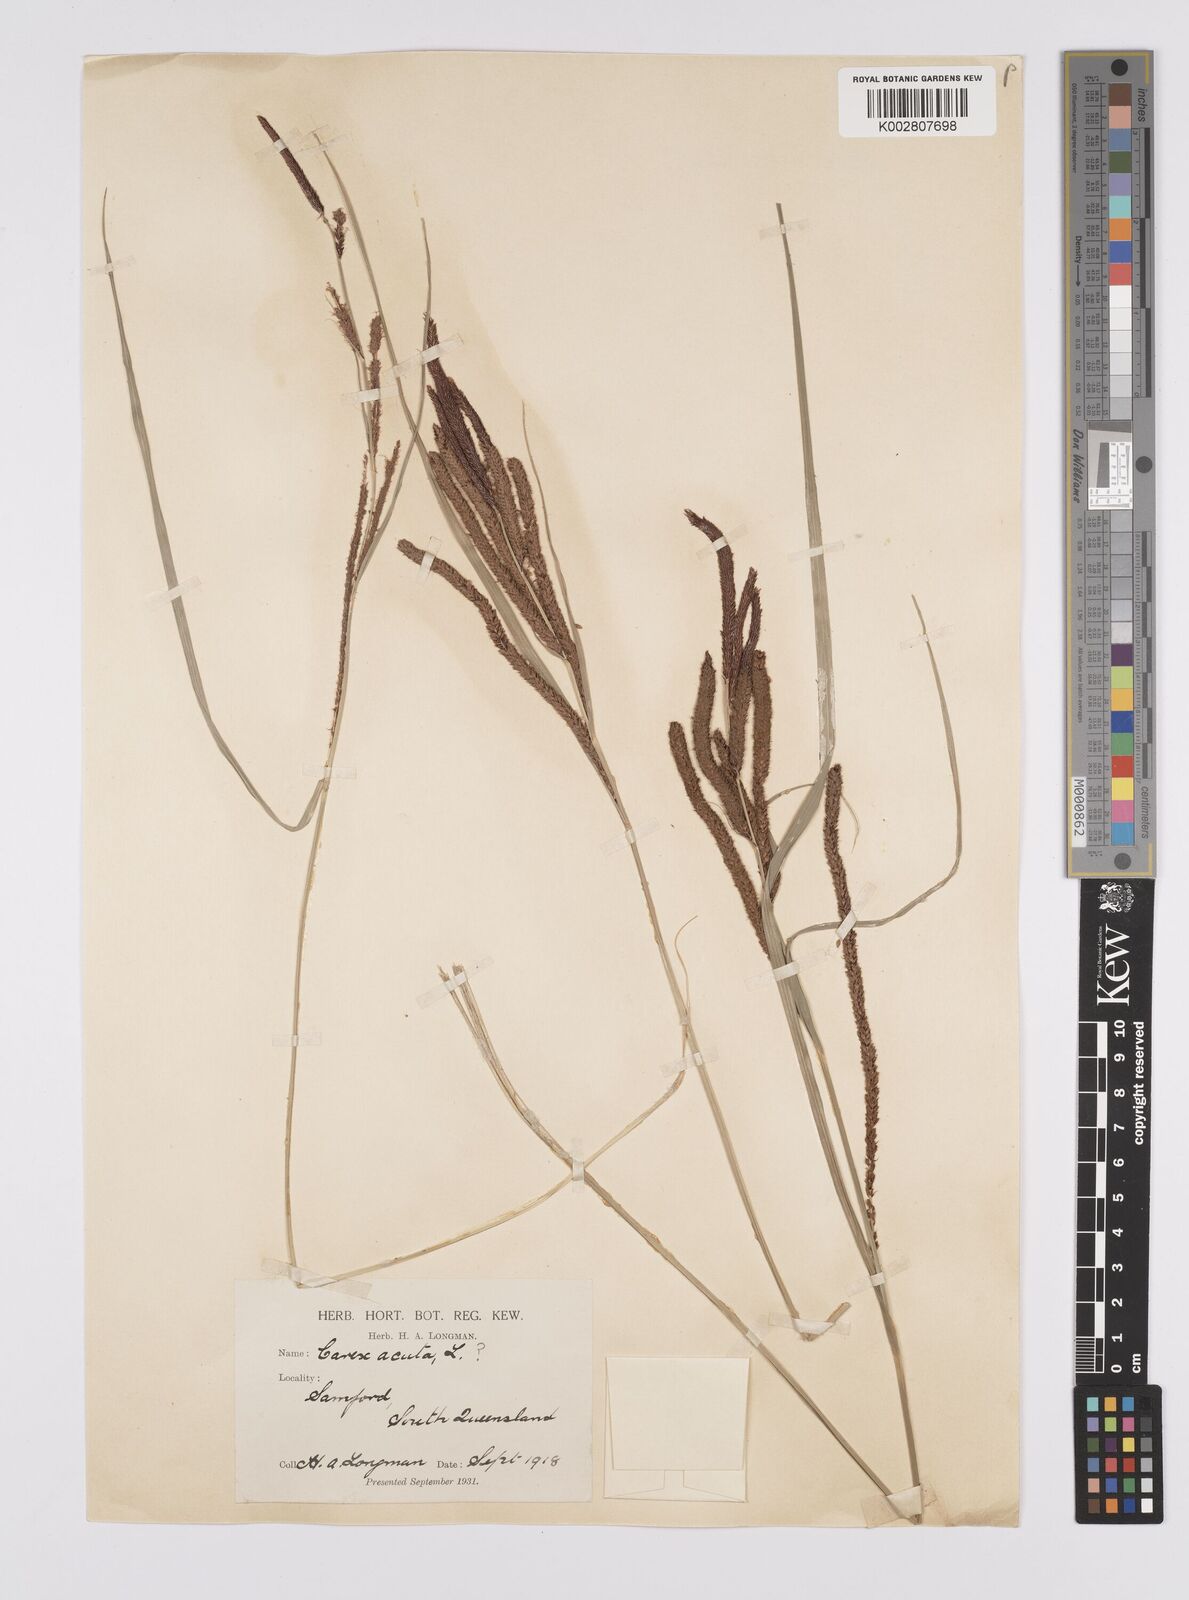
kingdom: Plantae
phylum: Tracheophyta
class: Liliopsida
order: Poales
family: Cyperaceae
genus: Carex
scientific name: Carex polyantha
